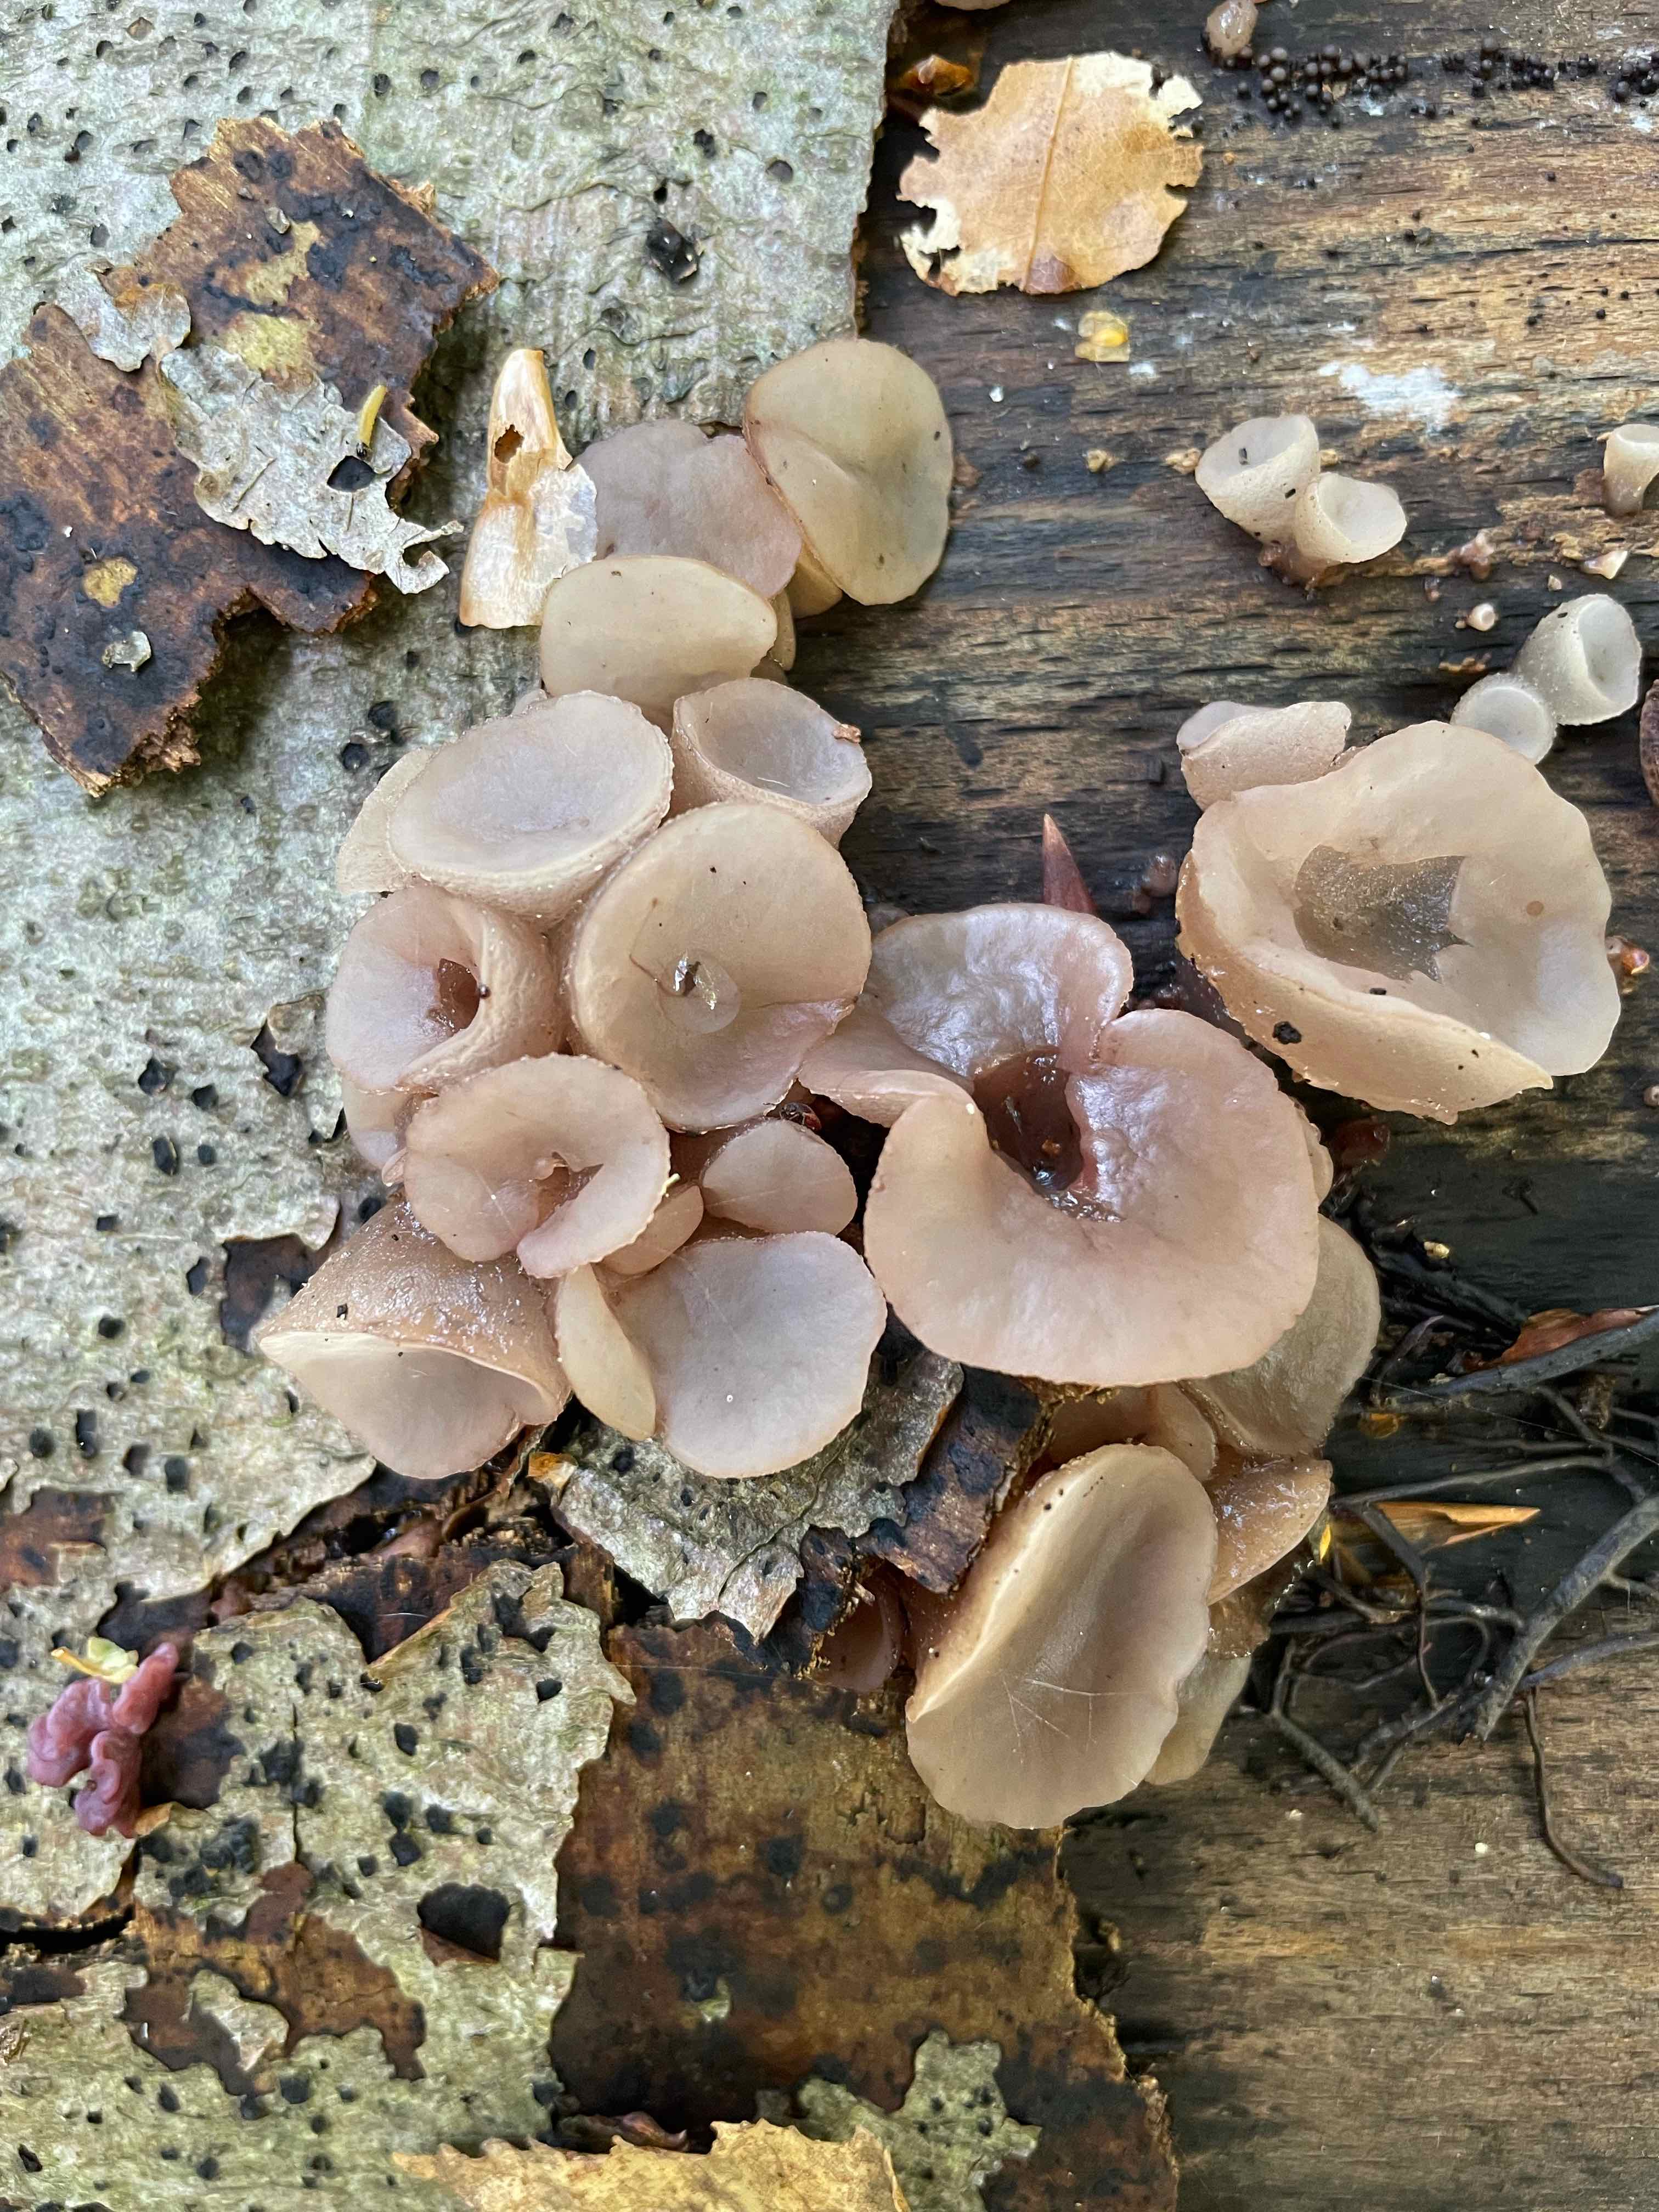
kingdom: Fungi
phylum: Ascomycota
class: Leotiomycetes
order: Helotiales
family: Gelatinodiscaceae
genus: Neobulgaria
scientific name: Neobulgaria pura
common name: bleg bævreskive
